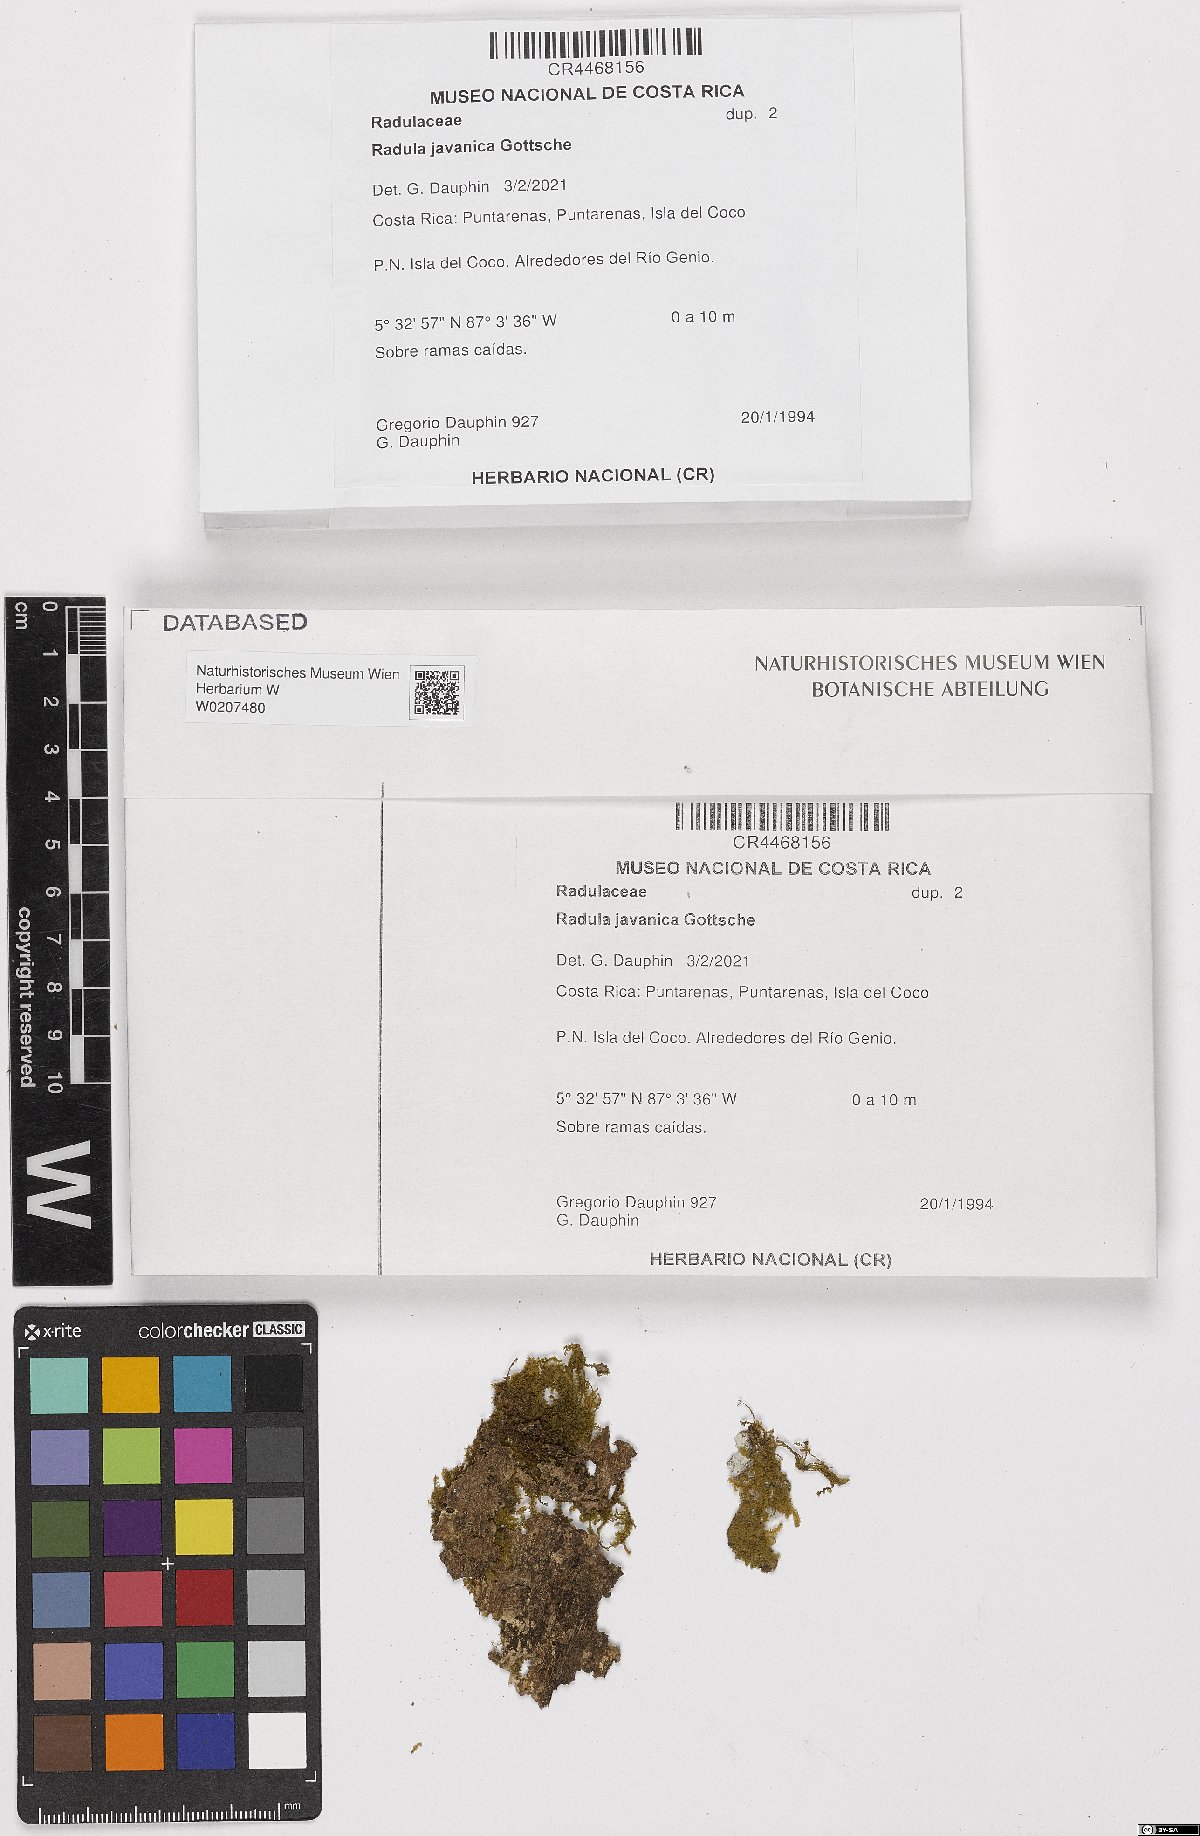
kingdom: Plantae
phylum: Marchantiophyta
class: Jungermanniopsida
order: Porellales
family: Radulaceae
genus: Radula
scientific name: Radula javanica
